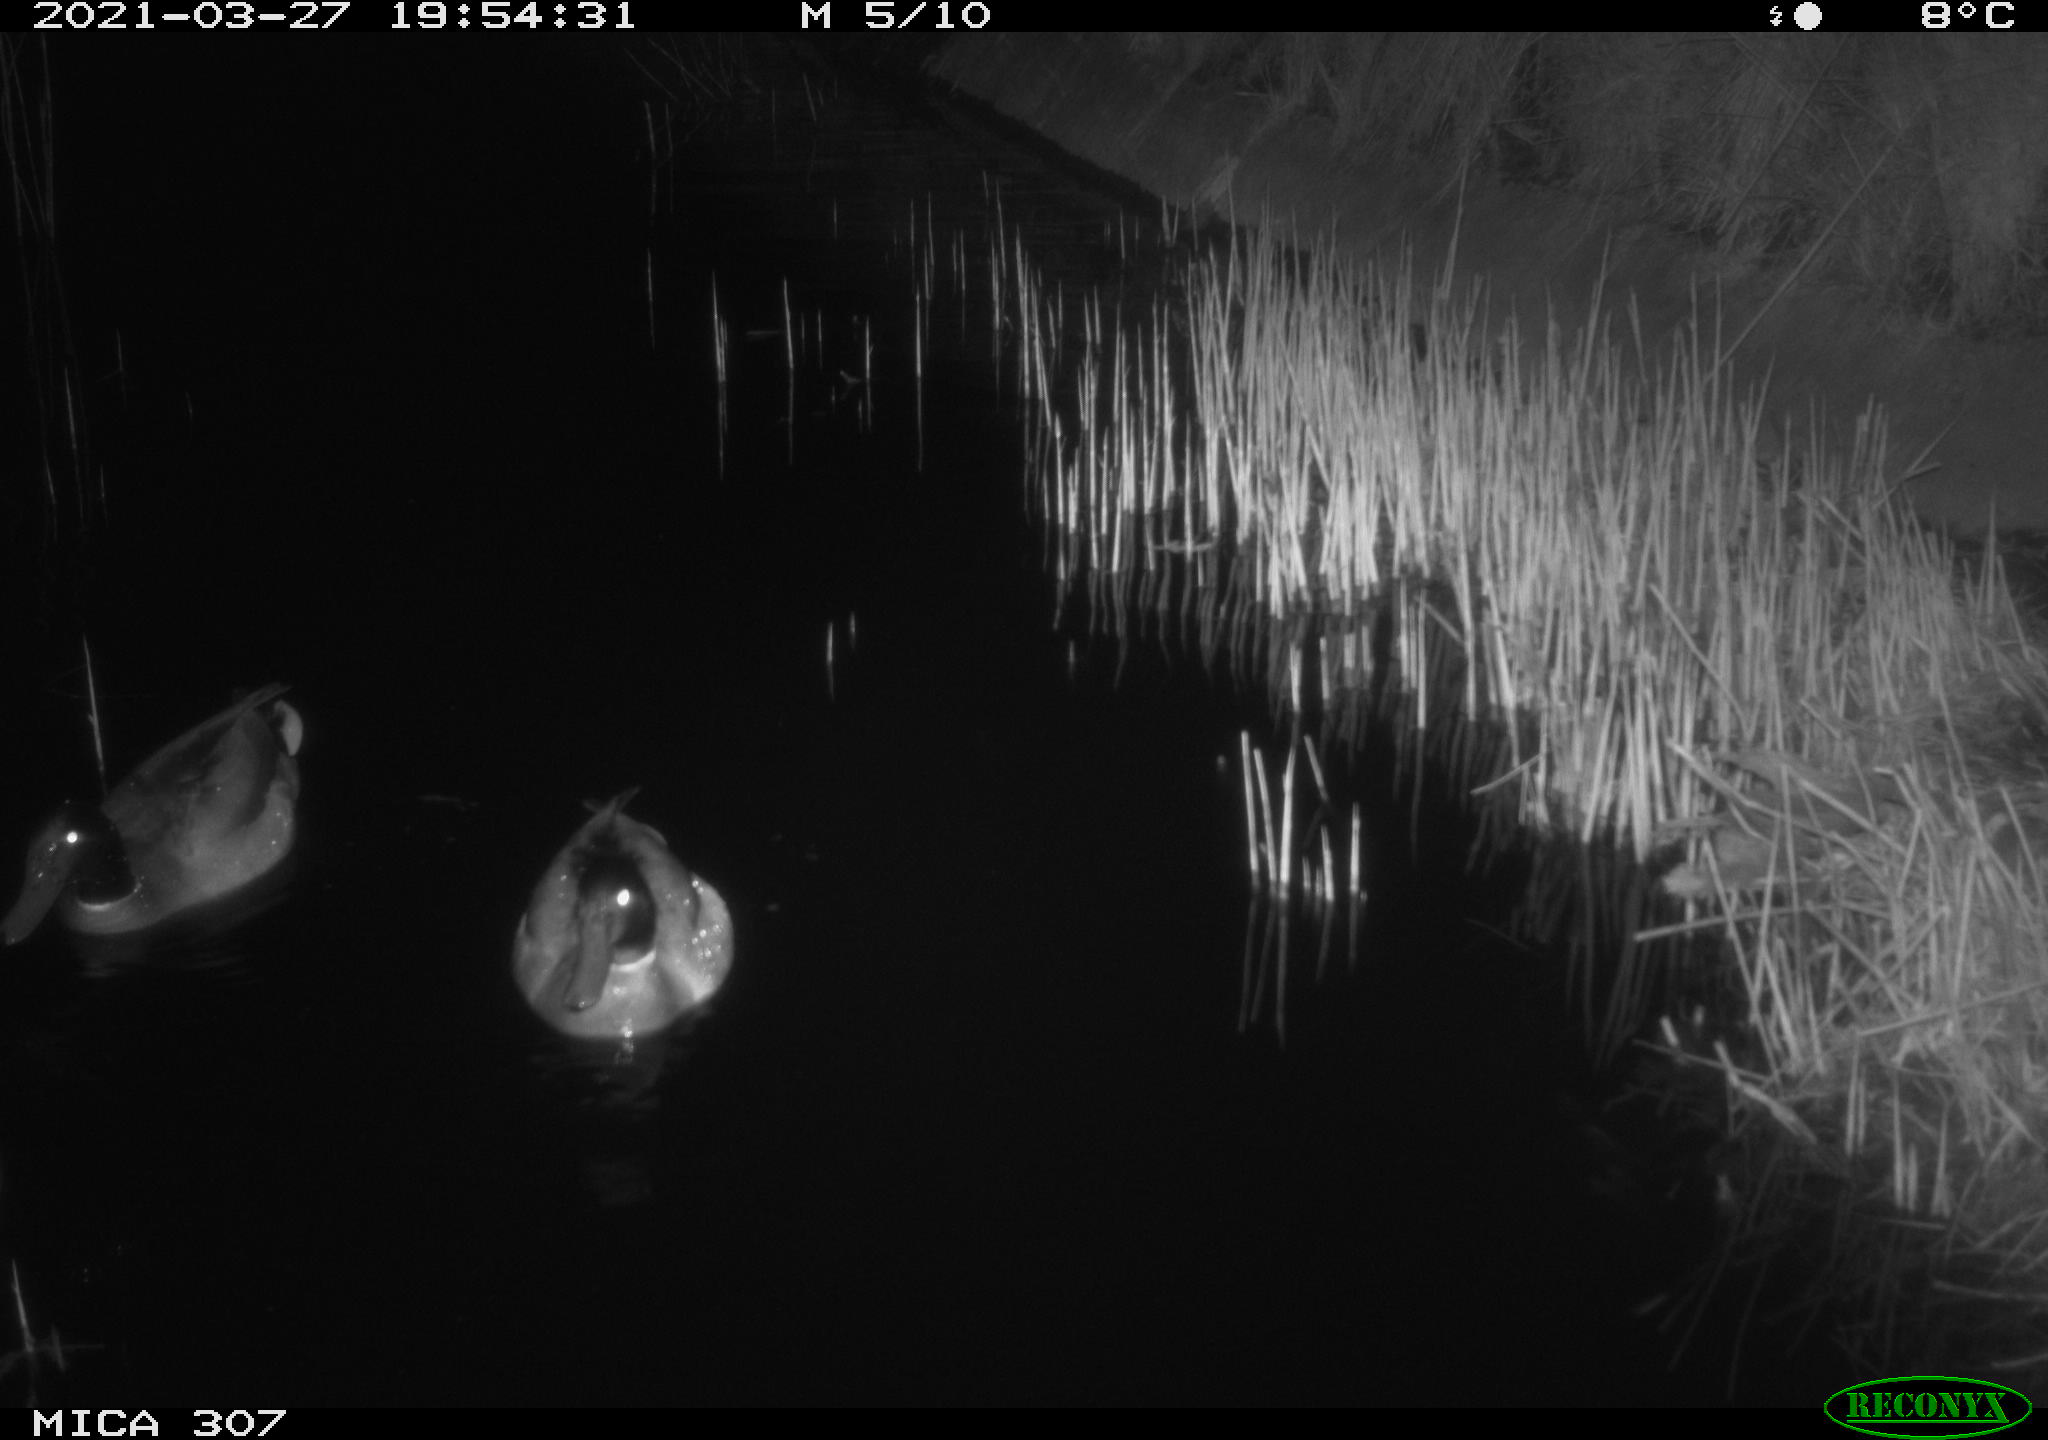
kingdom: Animalia
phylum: Chordata
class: Aves
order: Anseriformes
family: Anatidae
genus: Anas
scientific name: Anas platyrhynchos
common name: Mallard
